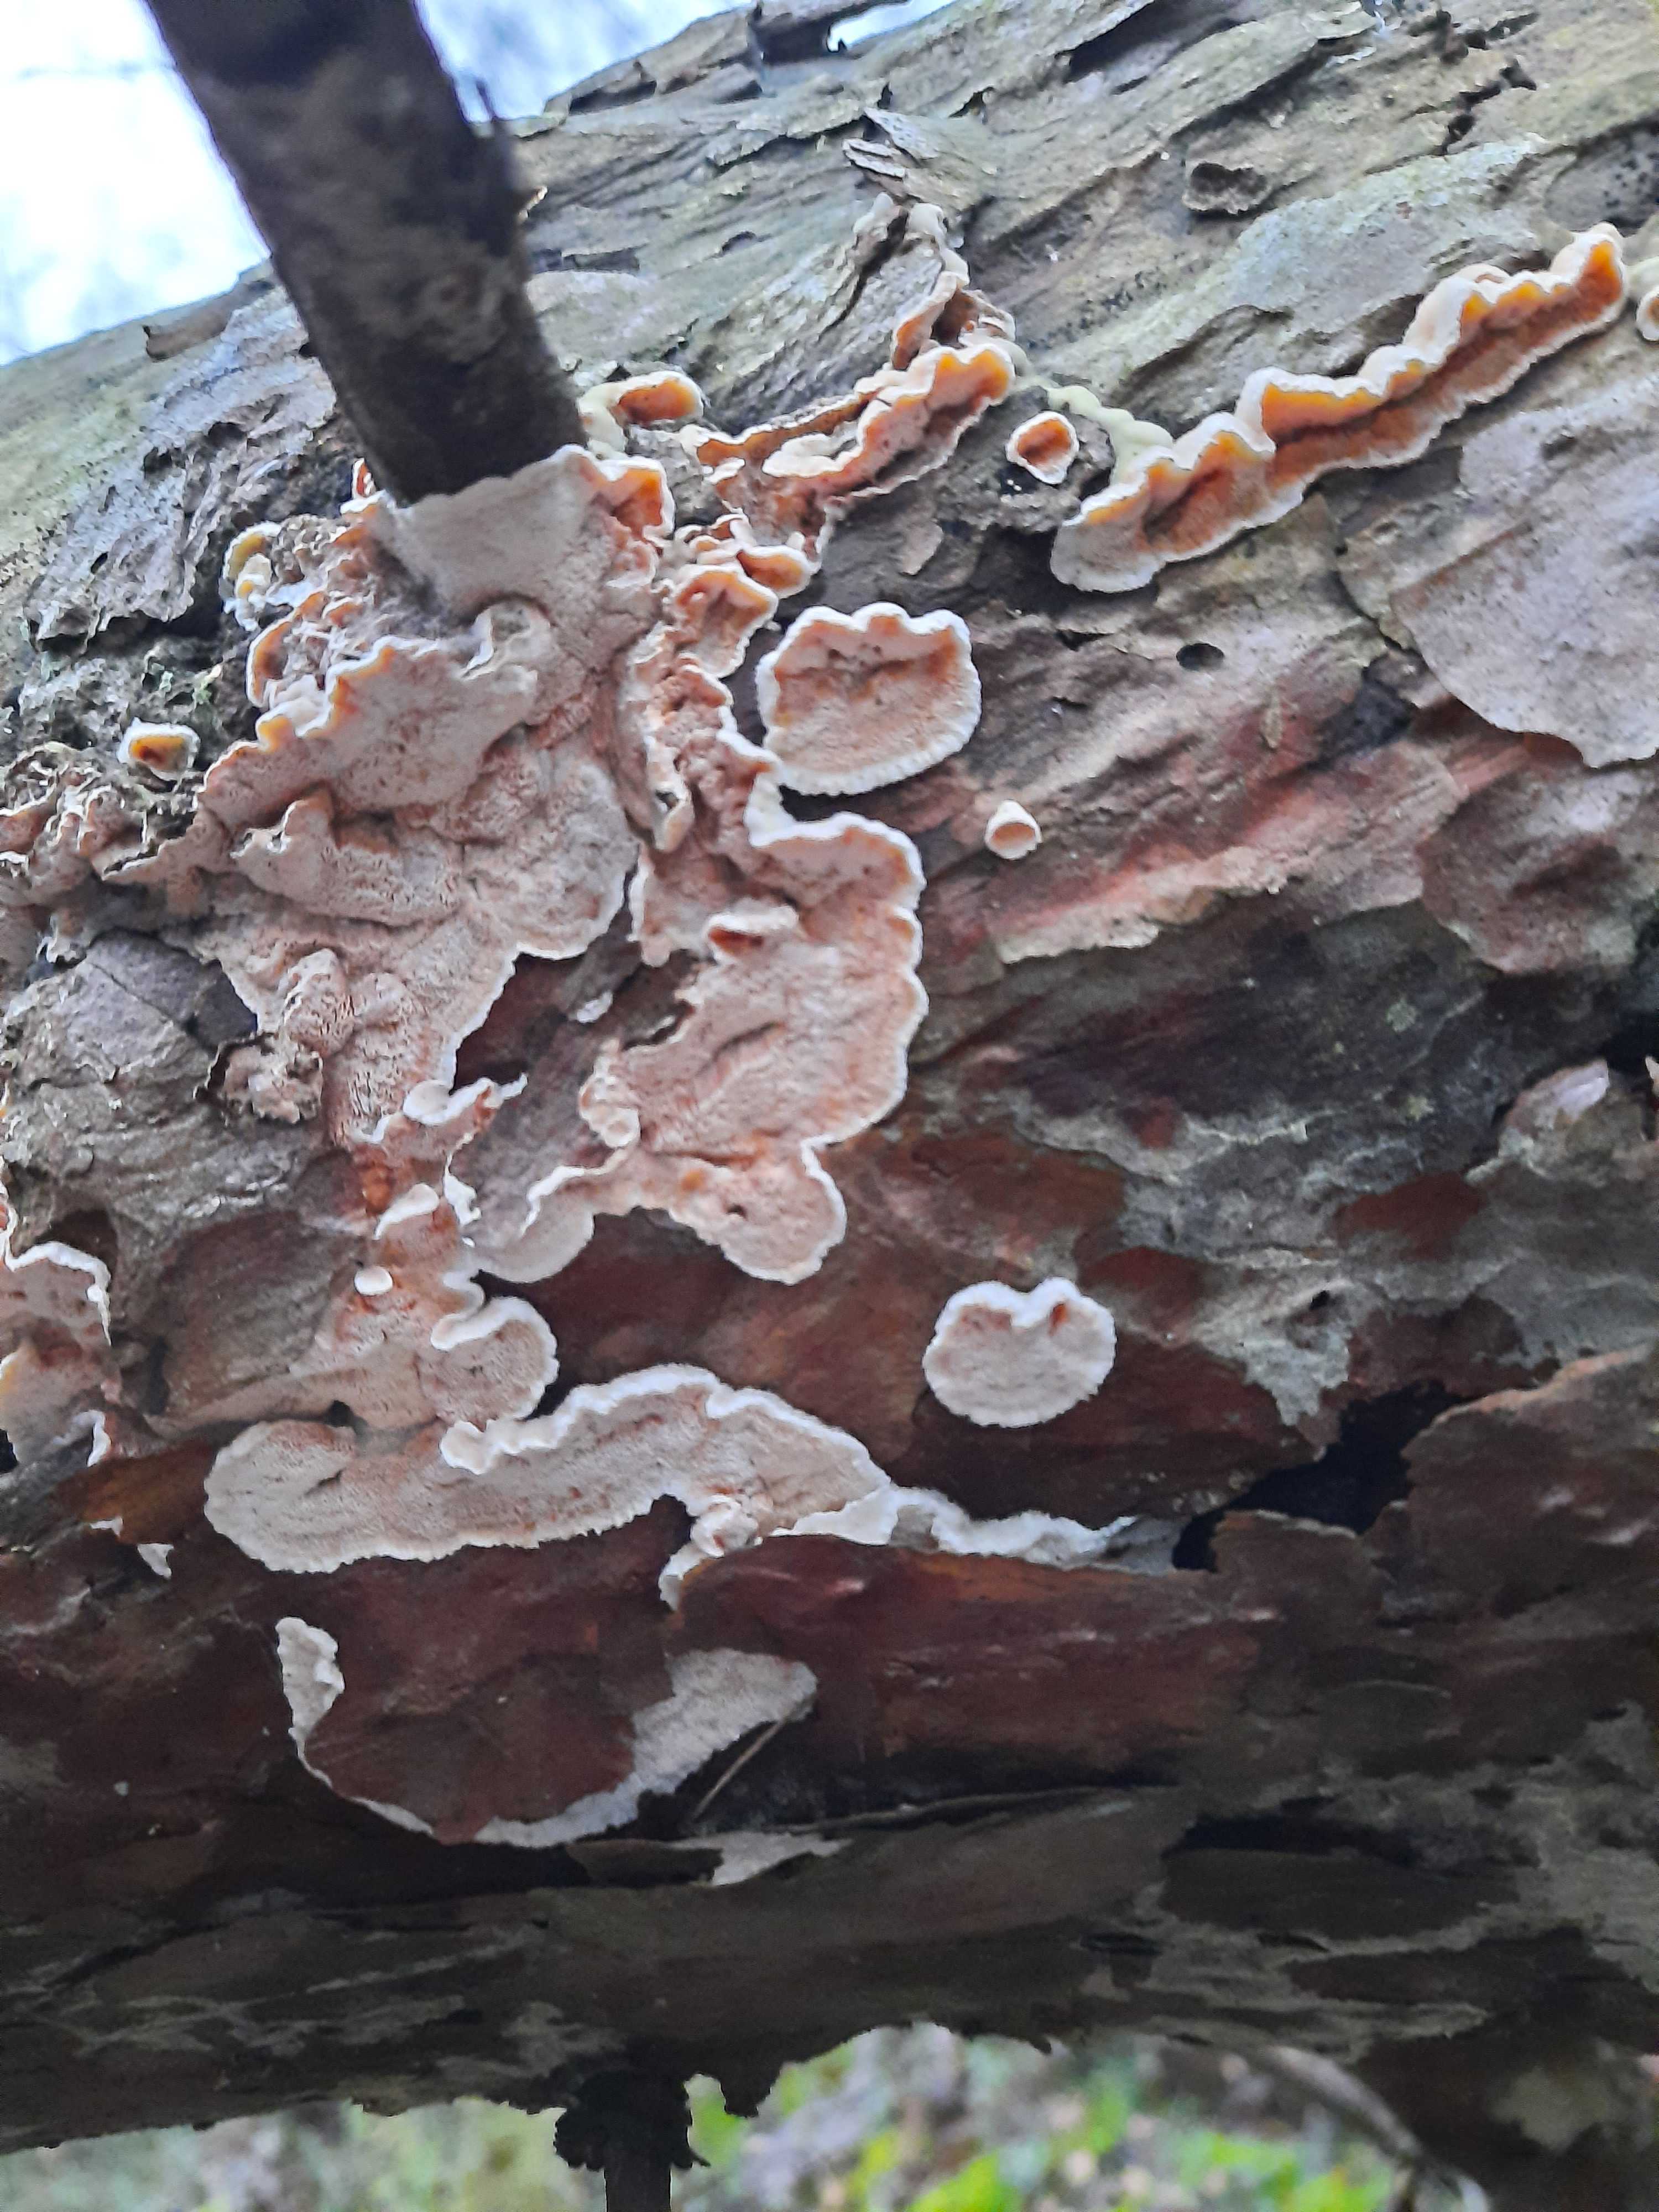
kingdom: Fungi
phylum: Basidiomycota
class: Agaricomycetes
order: Polyporales
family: Incrustoporiaceae
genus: Skeletocutis
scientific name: Skeletocutis amorpha
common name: orange krystalporesvamp
